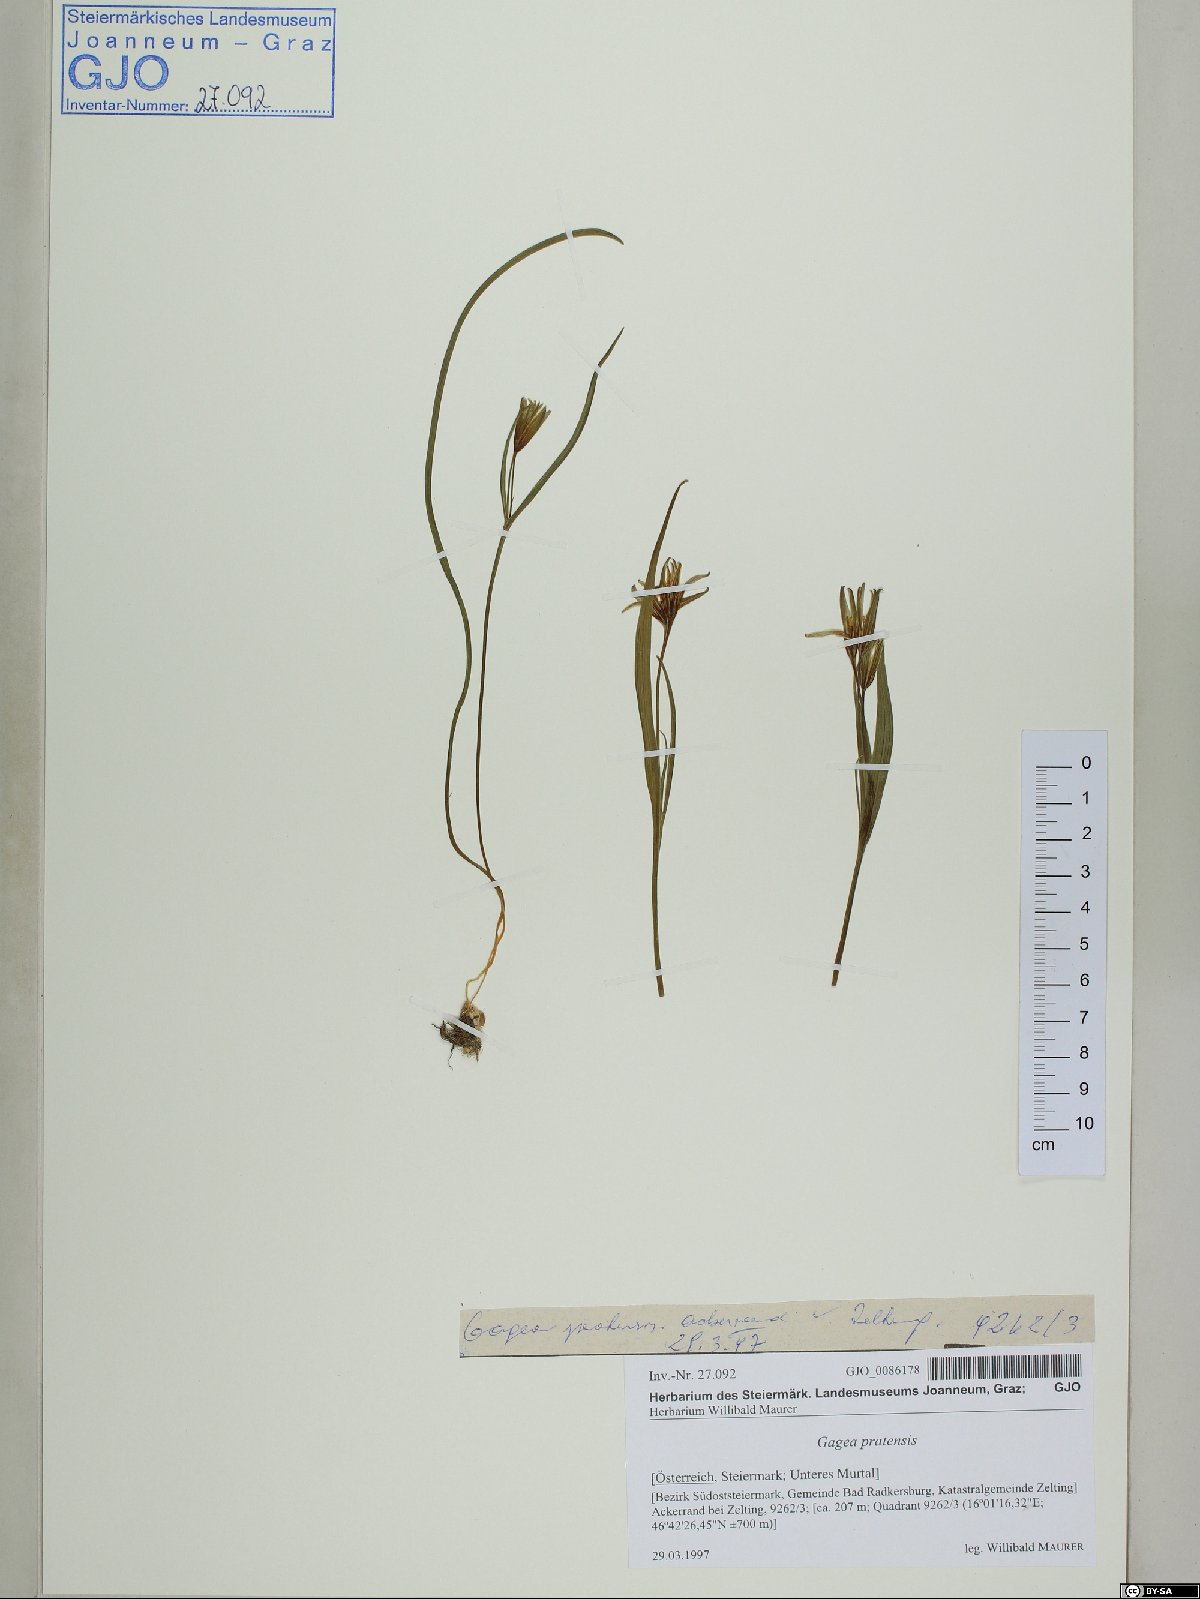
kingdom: Plantae
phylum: Tracheophyta
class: Liliopsida
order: Liliales
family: Liliaceae
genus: Gagea
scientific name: Gagea pratensis
